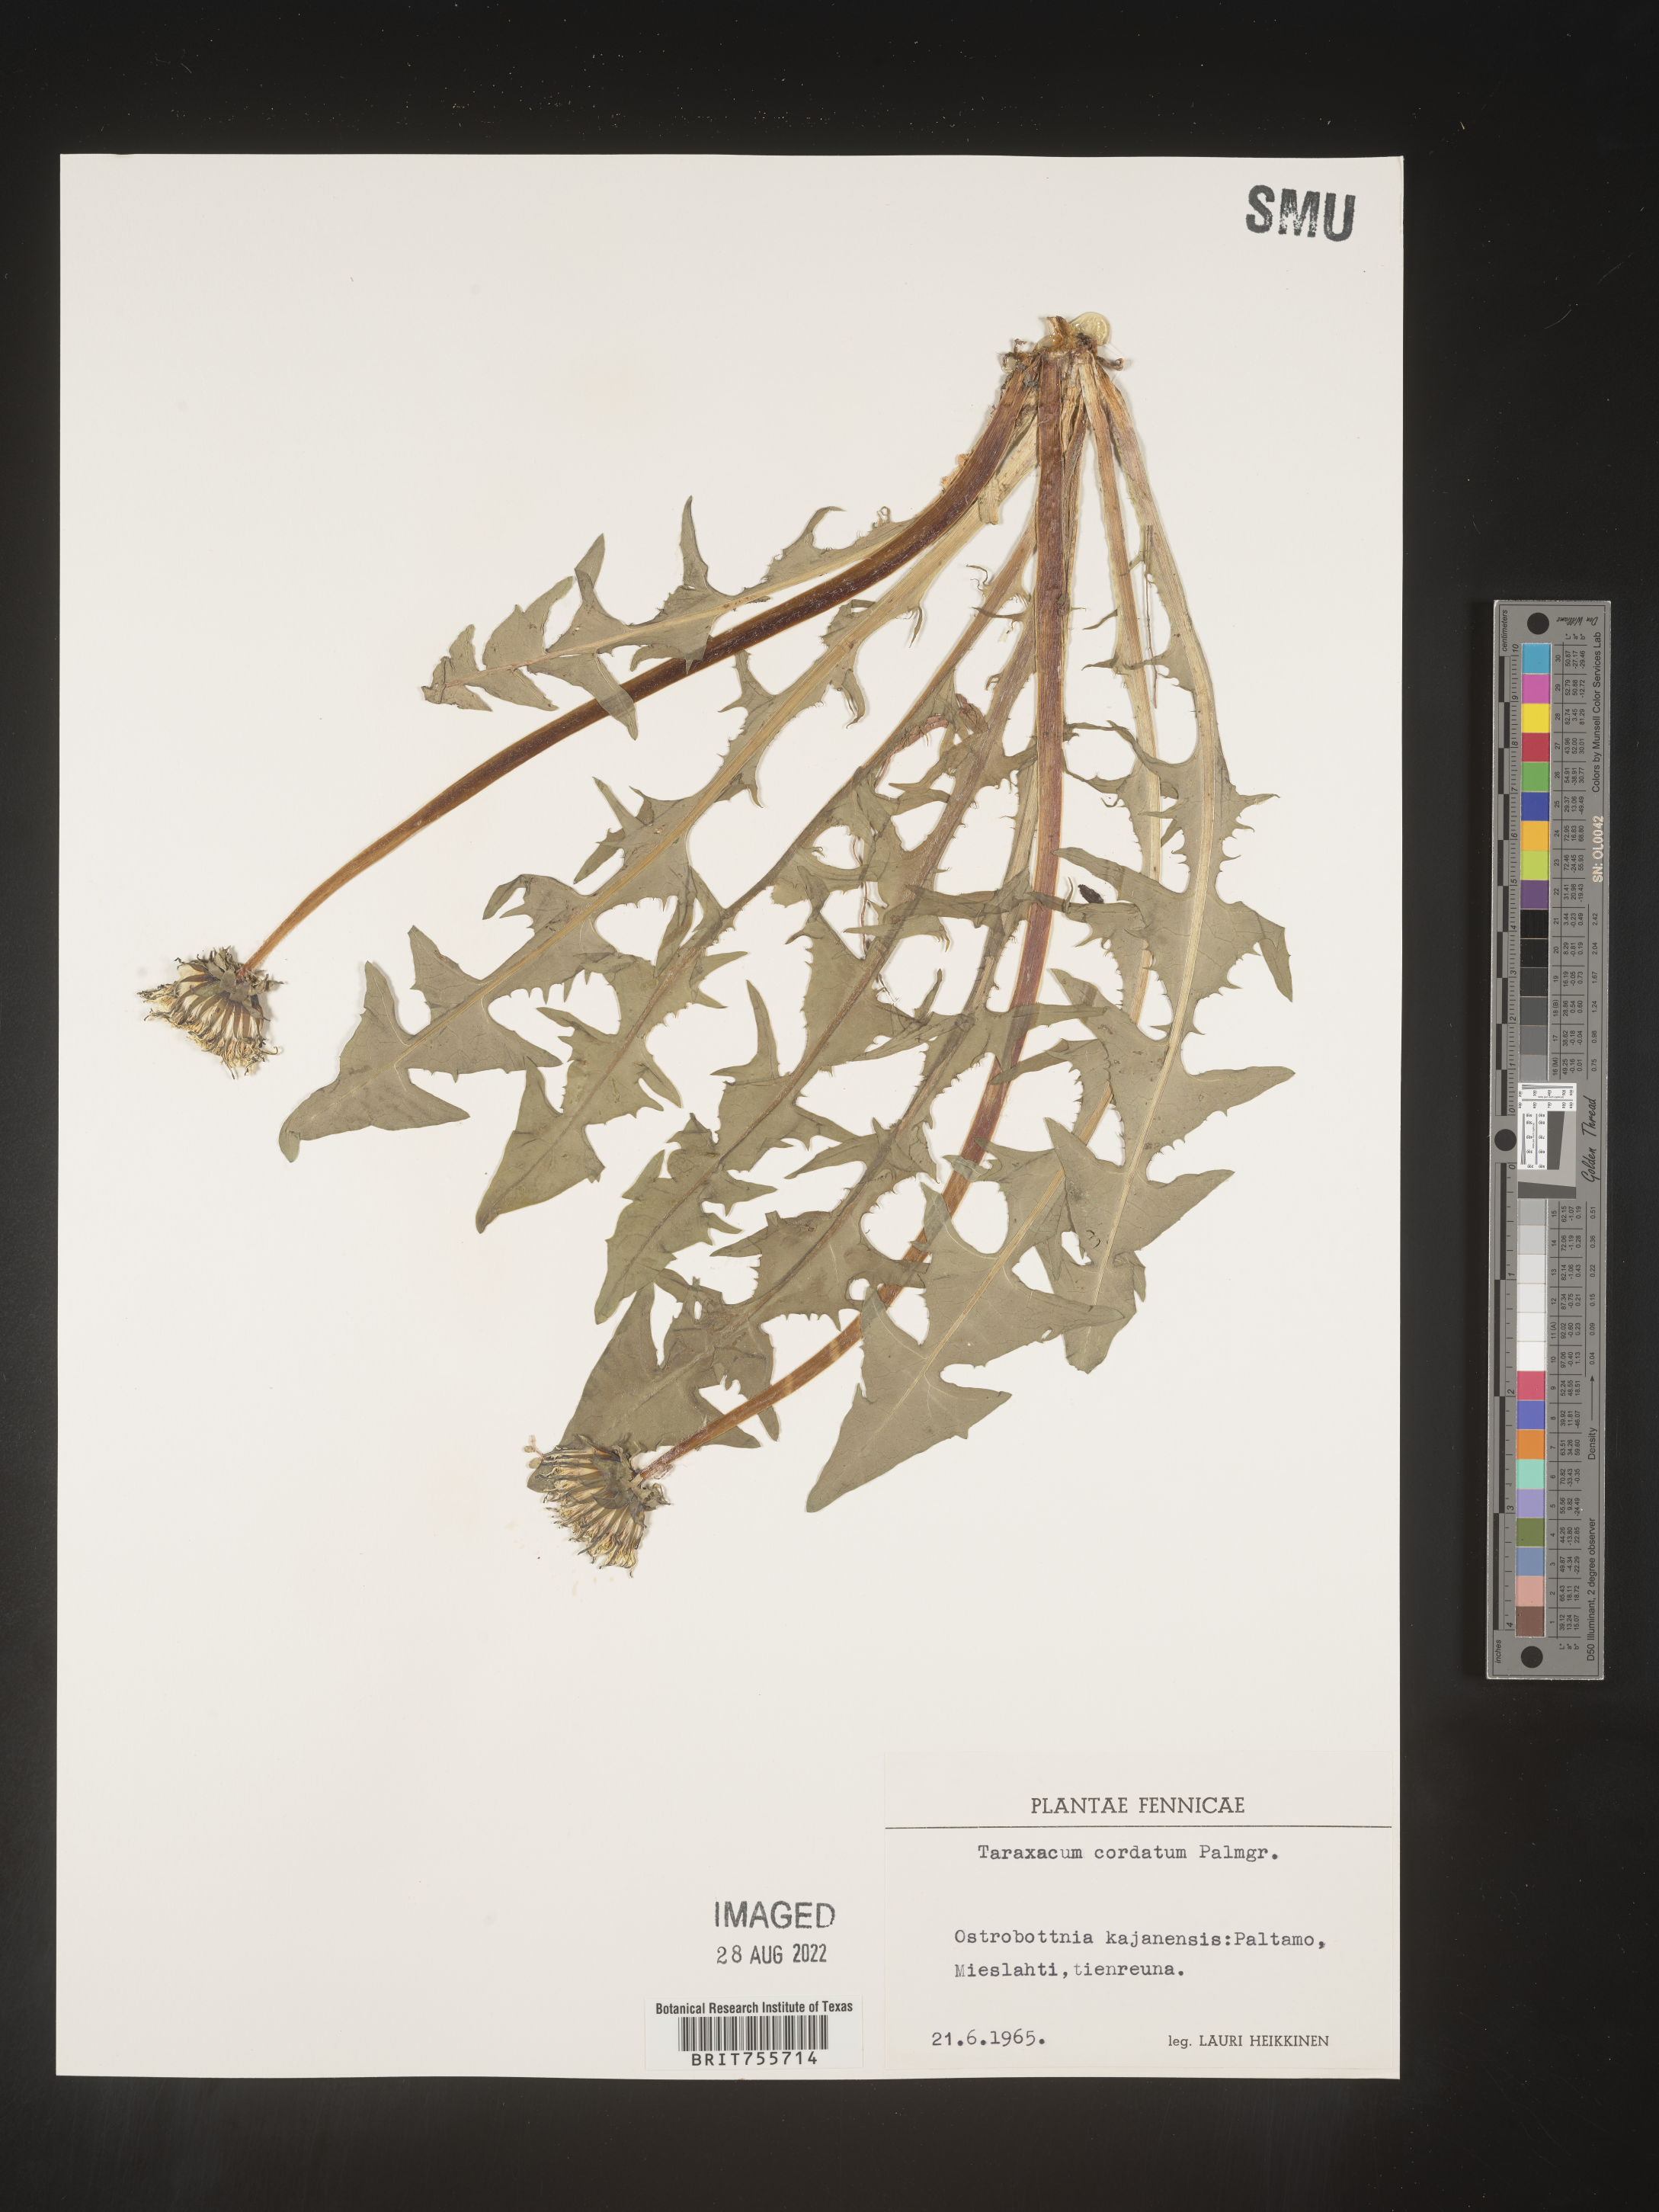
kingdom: Plantae
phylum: Tracheophyta
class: Magnoliopsida
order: Asterales
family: Asteraceae
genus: Taraxacum
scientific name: Taraxacum
